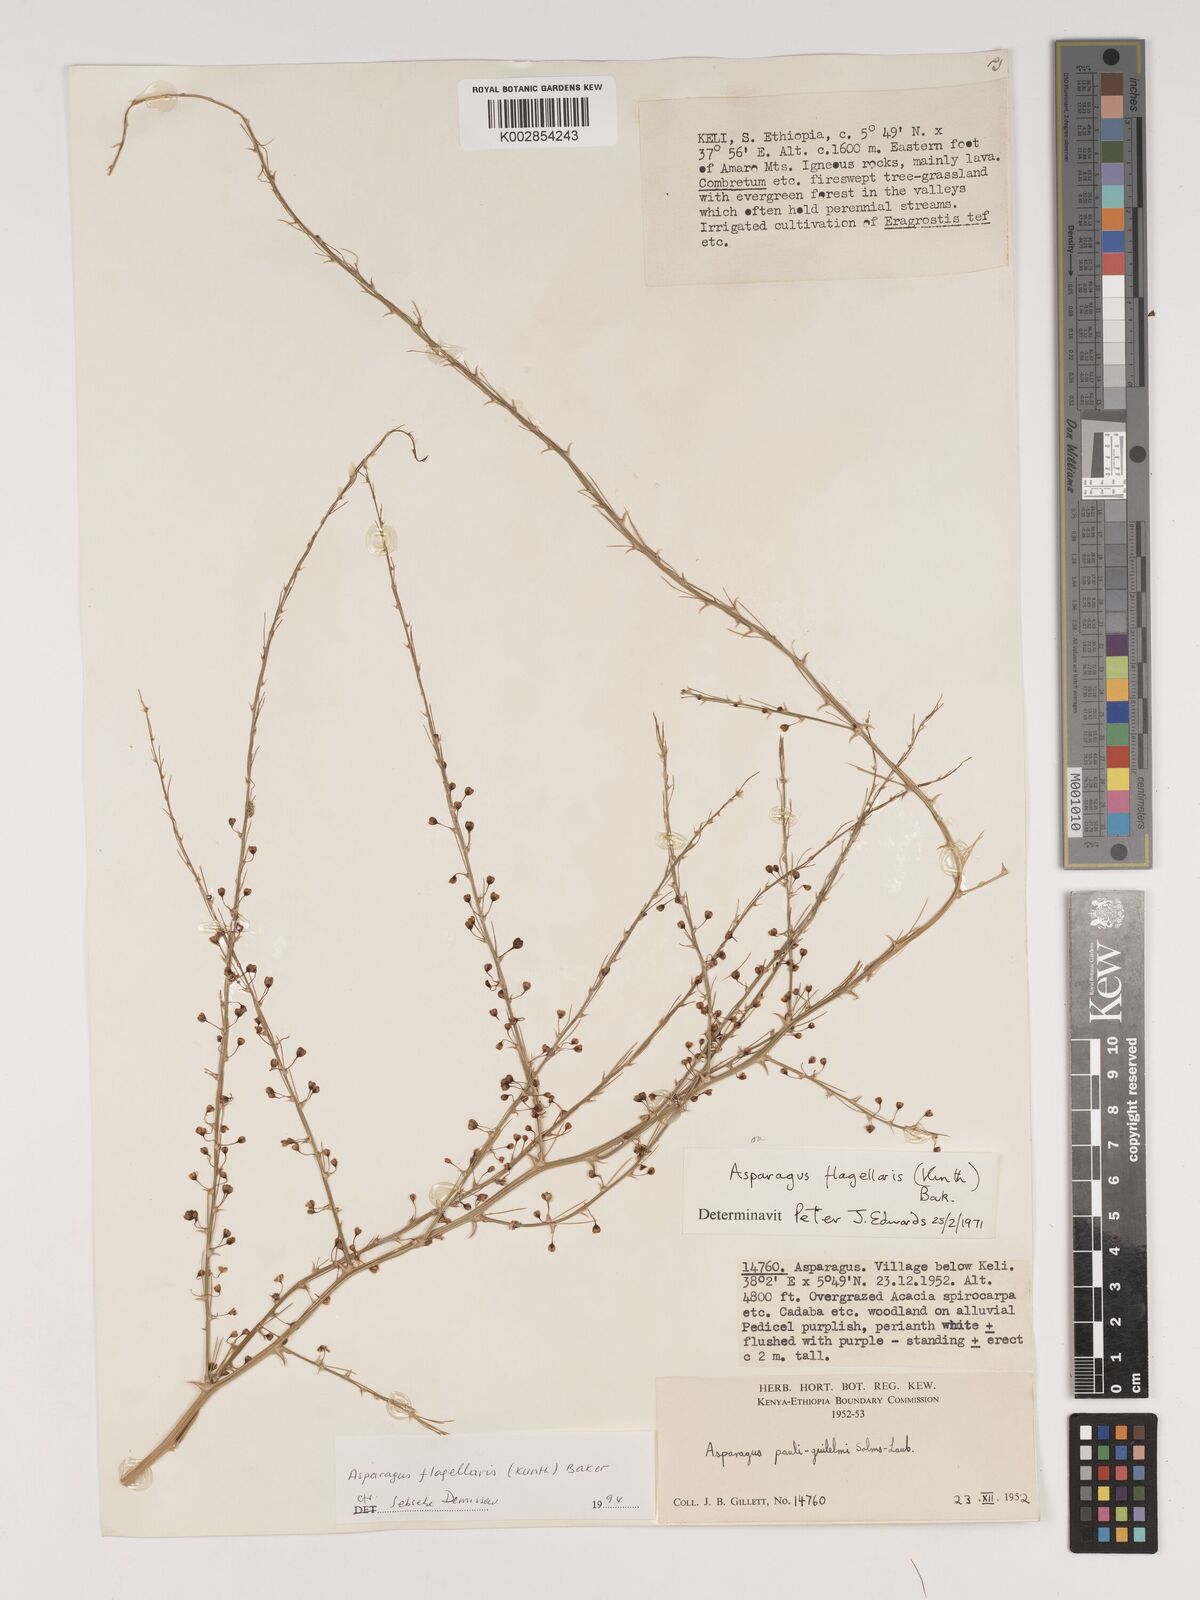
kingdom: Plantae
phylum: Tracheophyta
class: Liliopsida
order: Asparagales
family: Asparagaceae
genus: Asparagus
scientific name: Asparagus flagellaris
